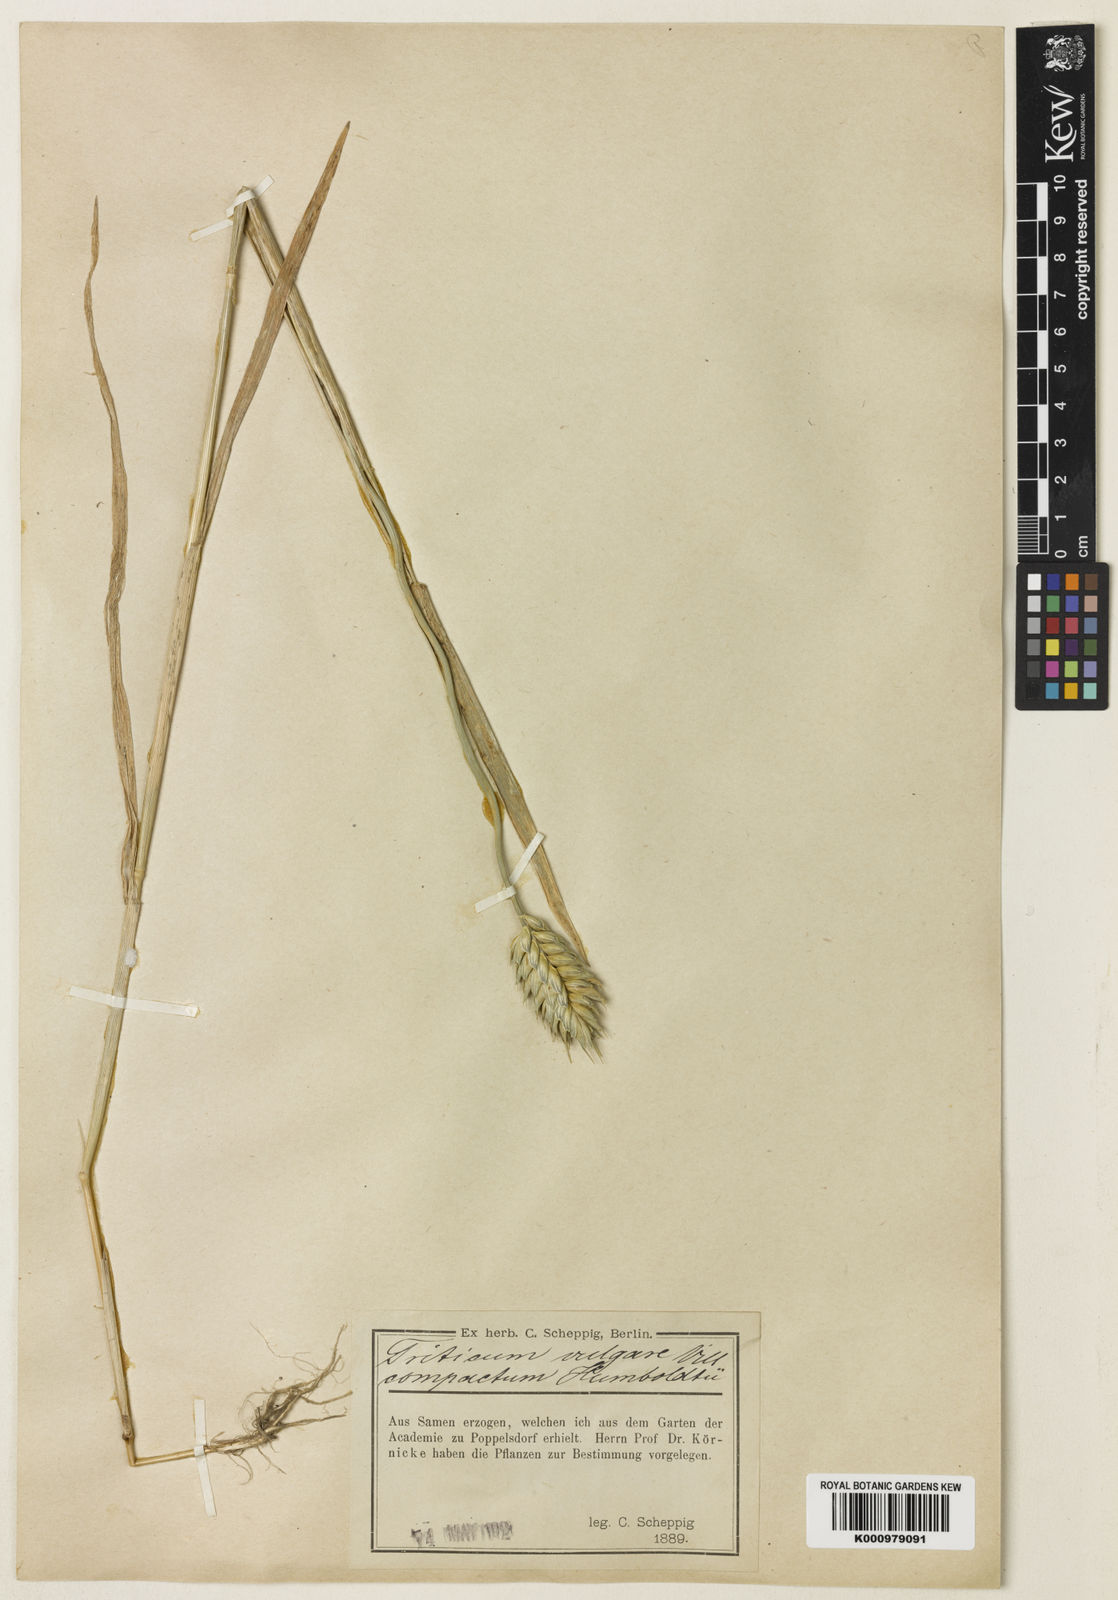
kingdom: Plantae
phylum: Tracheophyta
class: Liliopsida
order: Poales
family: Poaceae
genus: Triticum
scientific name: Triticum aestivum
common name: Common wheat
